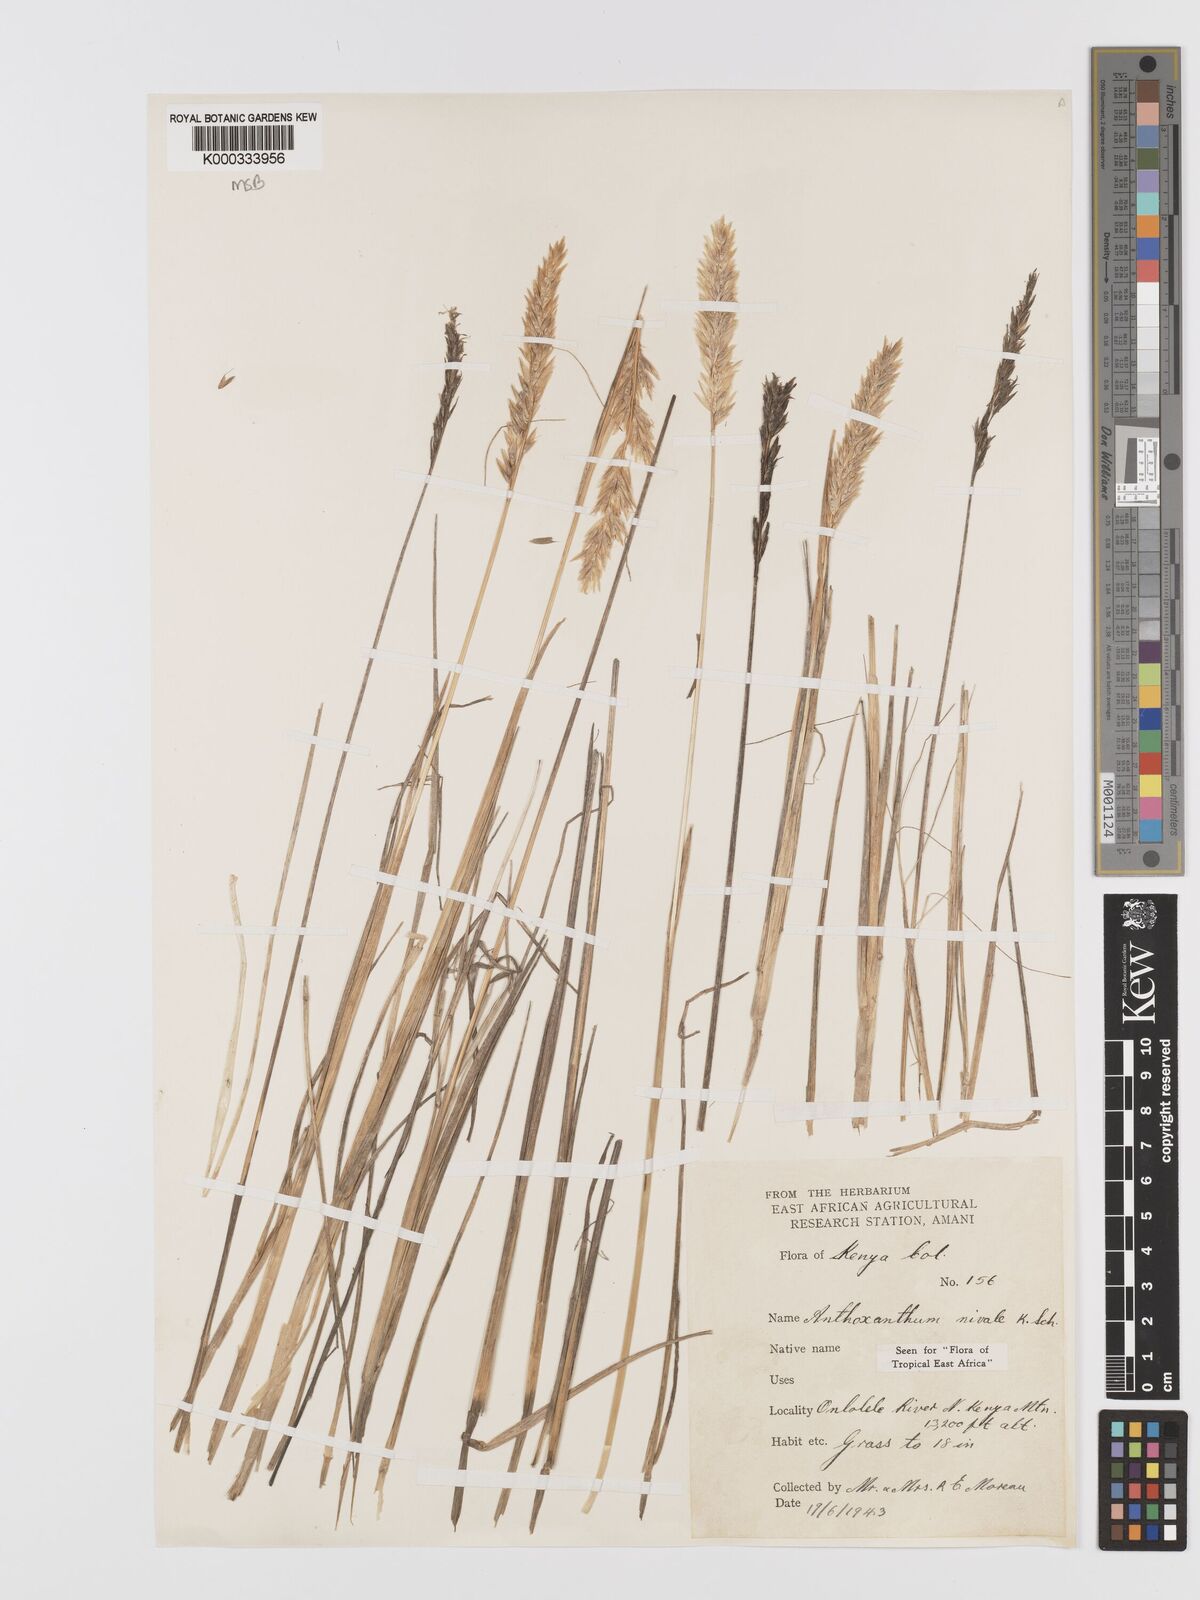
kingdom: Plantae
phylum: Tracheophyta
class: Liliopsida
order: Poales
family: Poaceae
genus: Anthoxanthum
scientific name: Anthoxanthum
